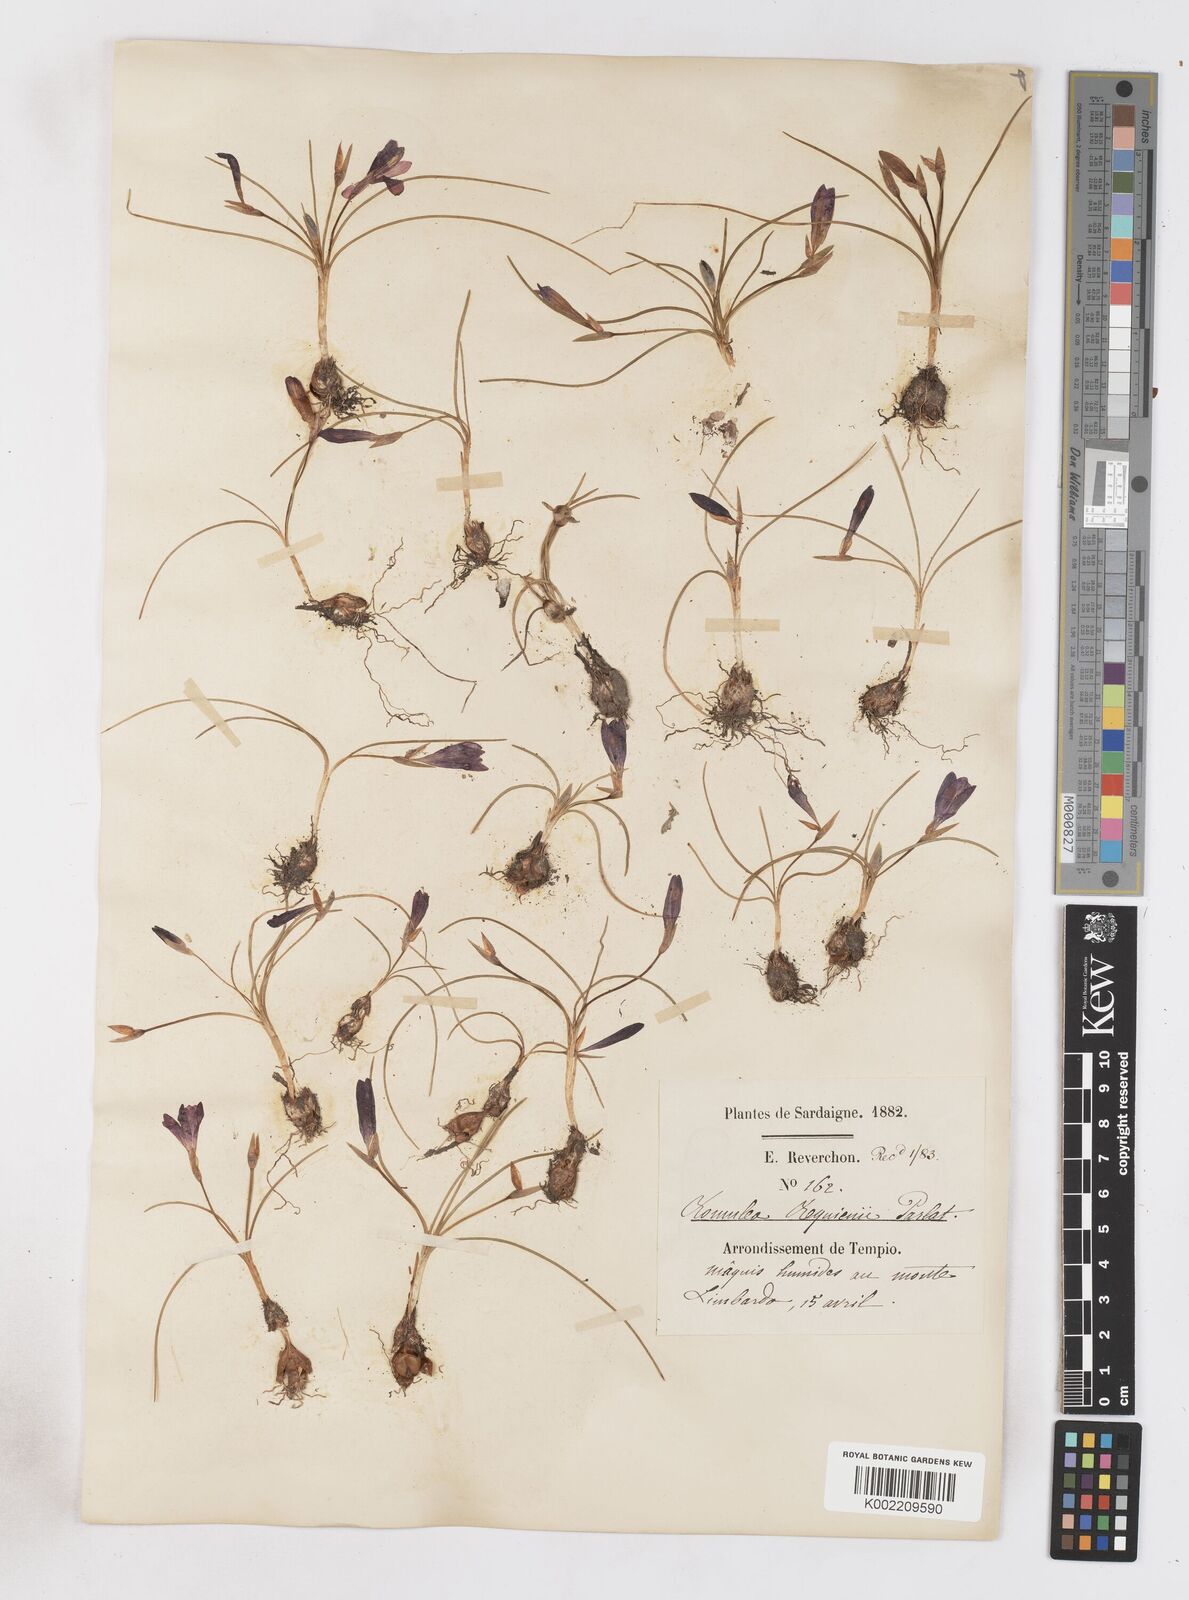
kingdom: Plantae
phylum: Tracheophyta
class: Liliopsida
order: Asparagales
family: Iridaceae
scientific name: Iridaceae
